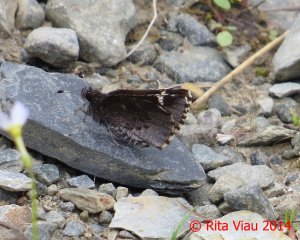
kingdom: Animalia
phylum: Arthropoda
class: Insecta
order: Lepidoptera
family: Hesperiidae
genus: Mastor
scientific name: Mastor vialis
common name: Common Roadside-Skipper
